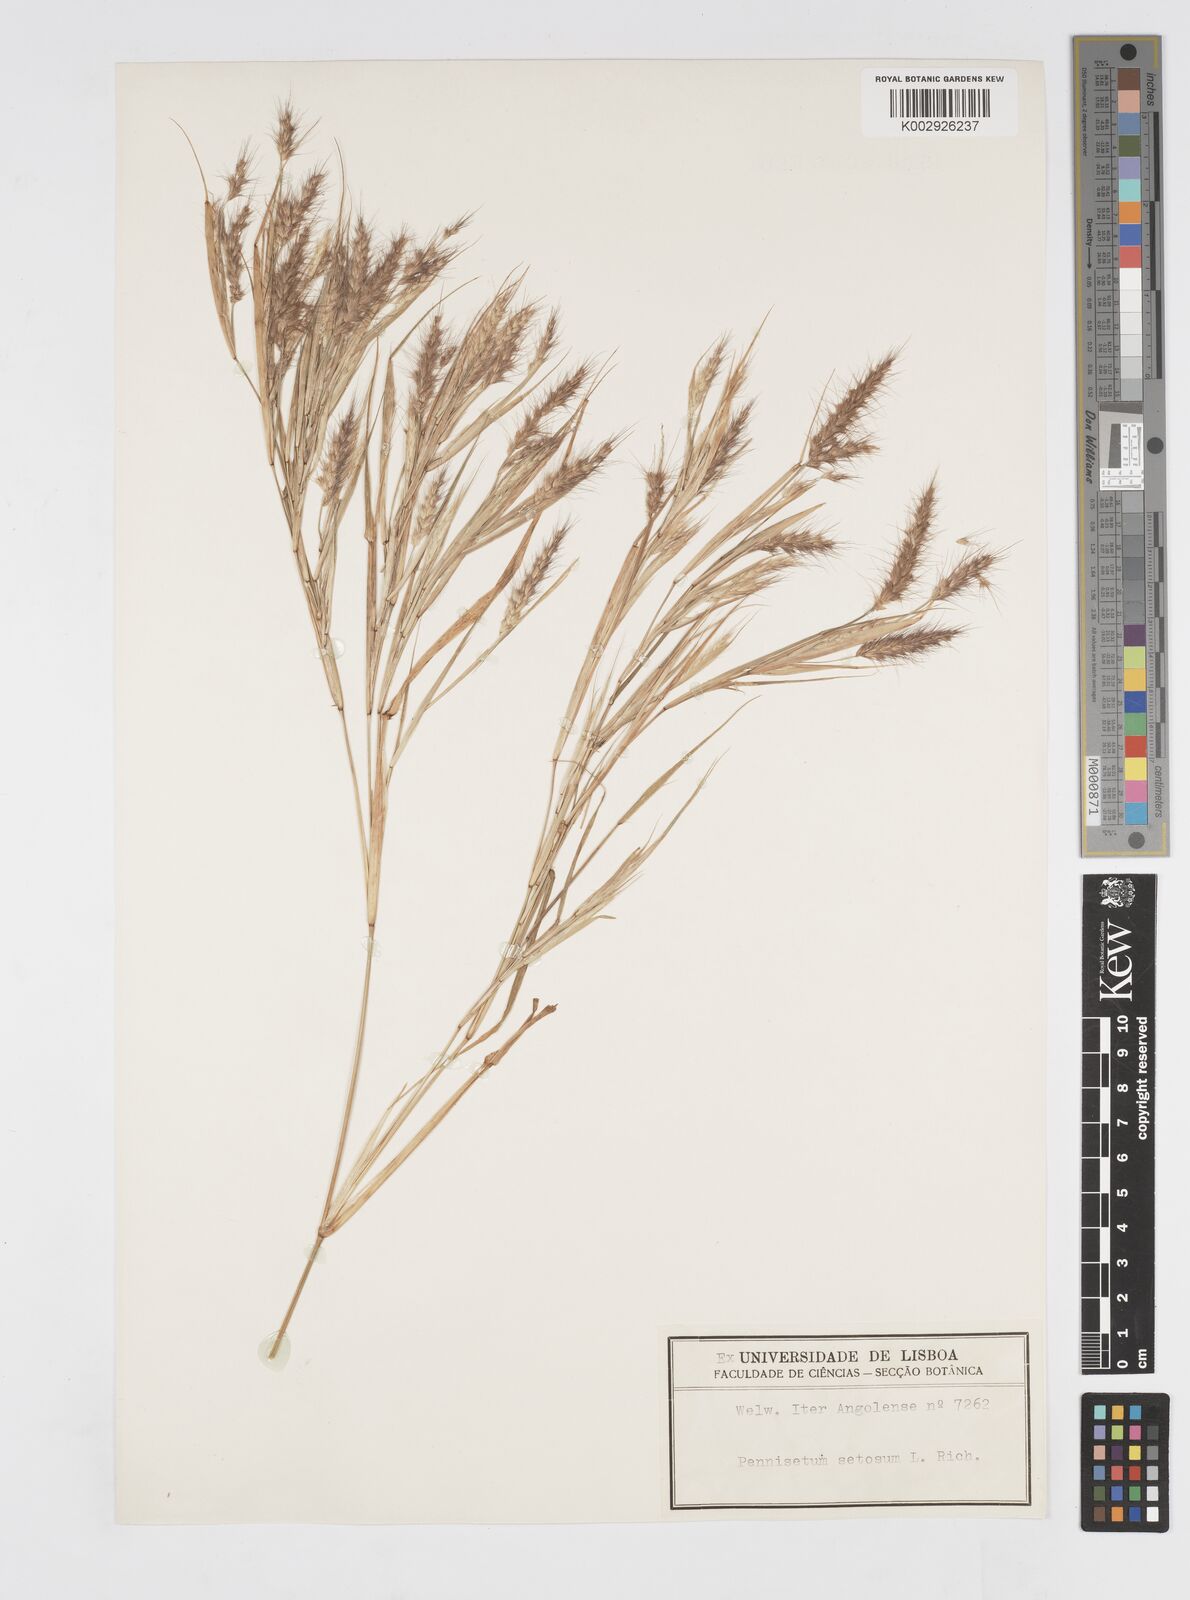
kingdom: Plantae
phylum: Tracheophyta
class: Liliopsida
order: Poales
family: Poaceae
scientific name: Poaceae
